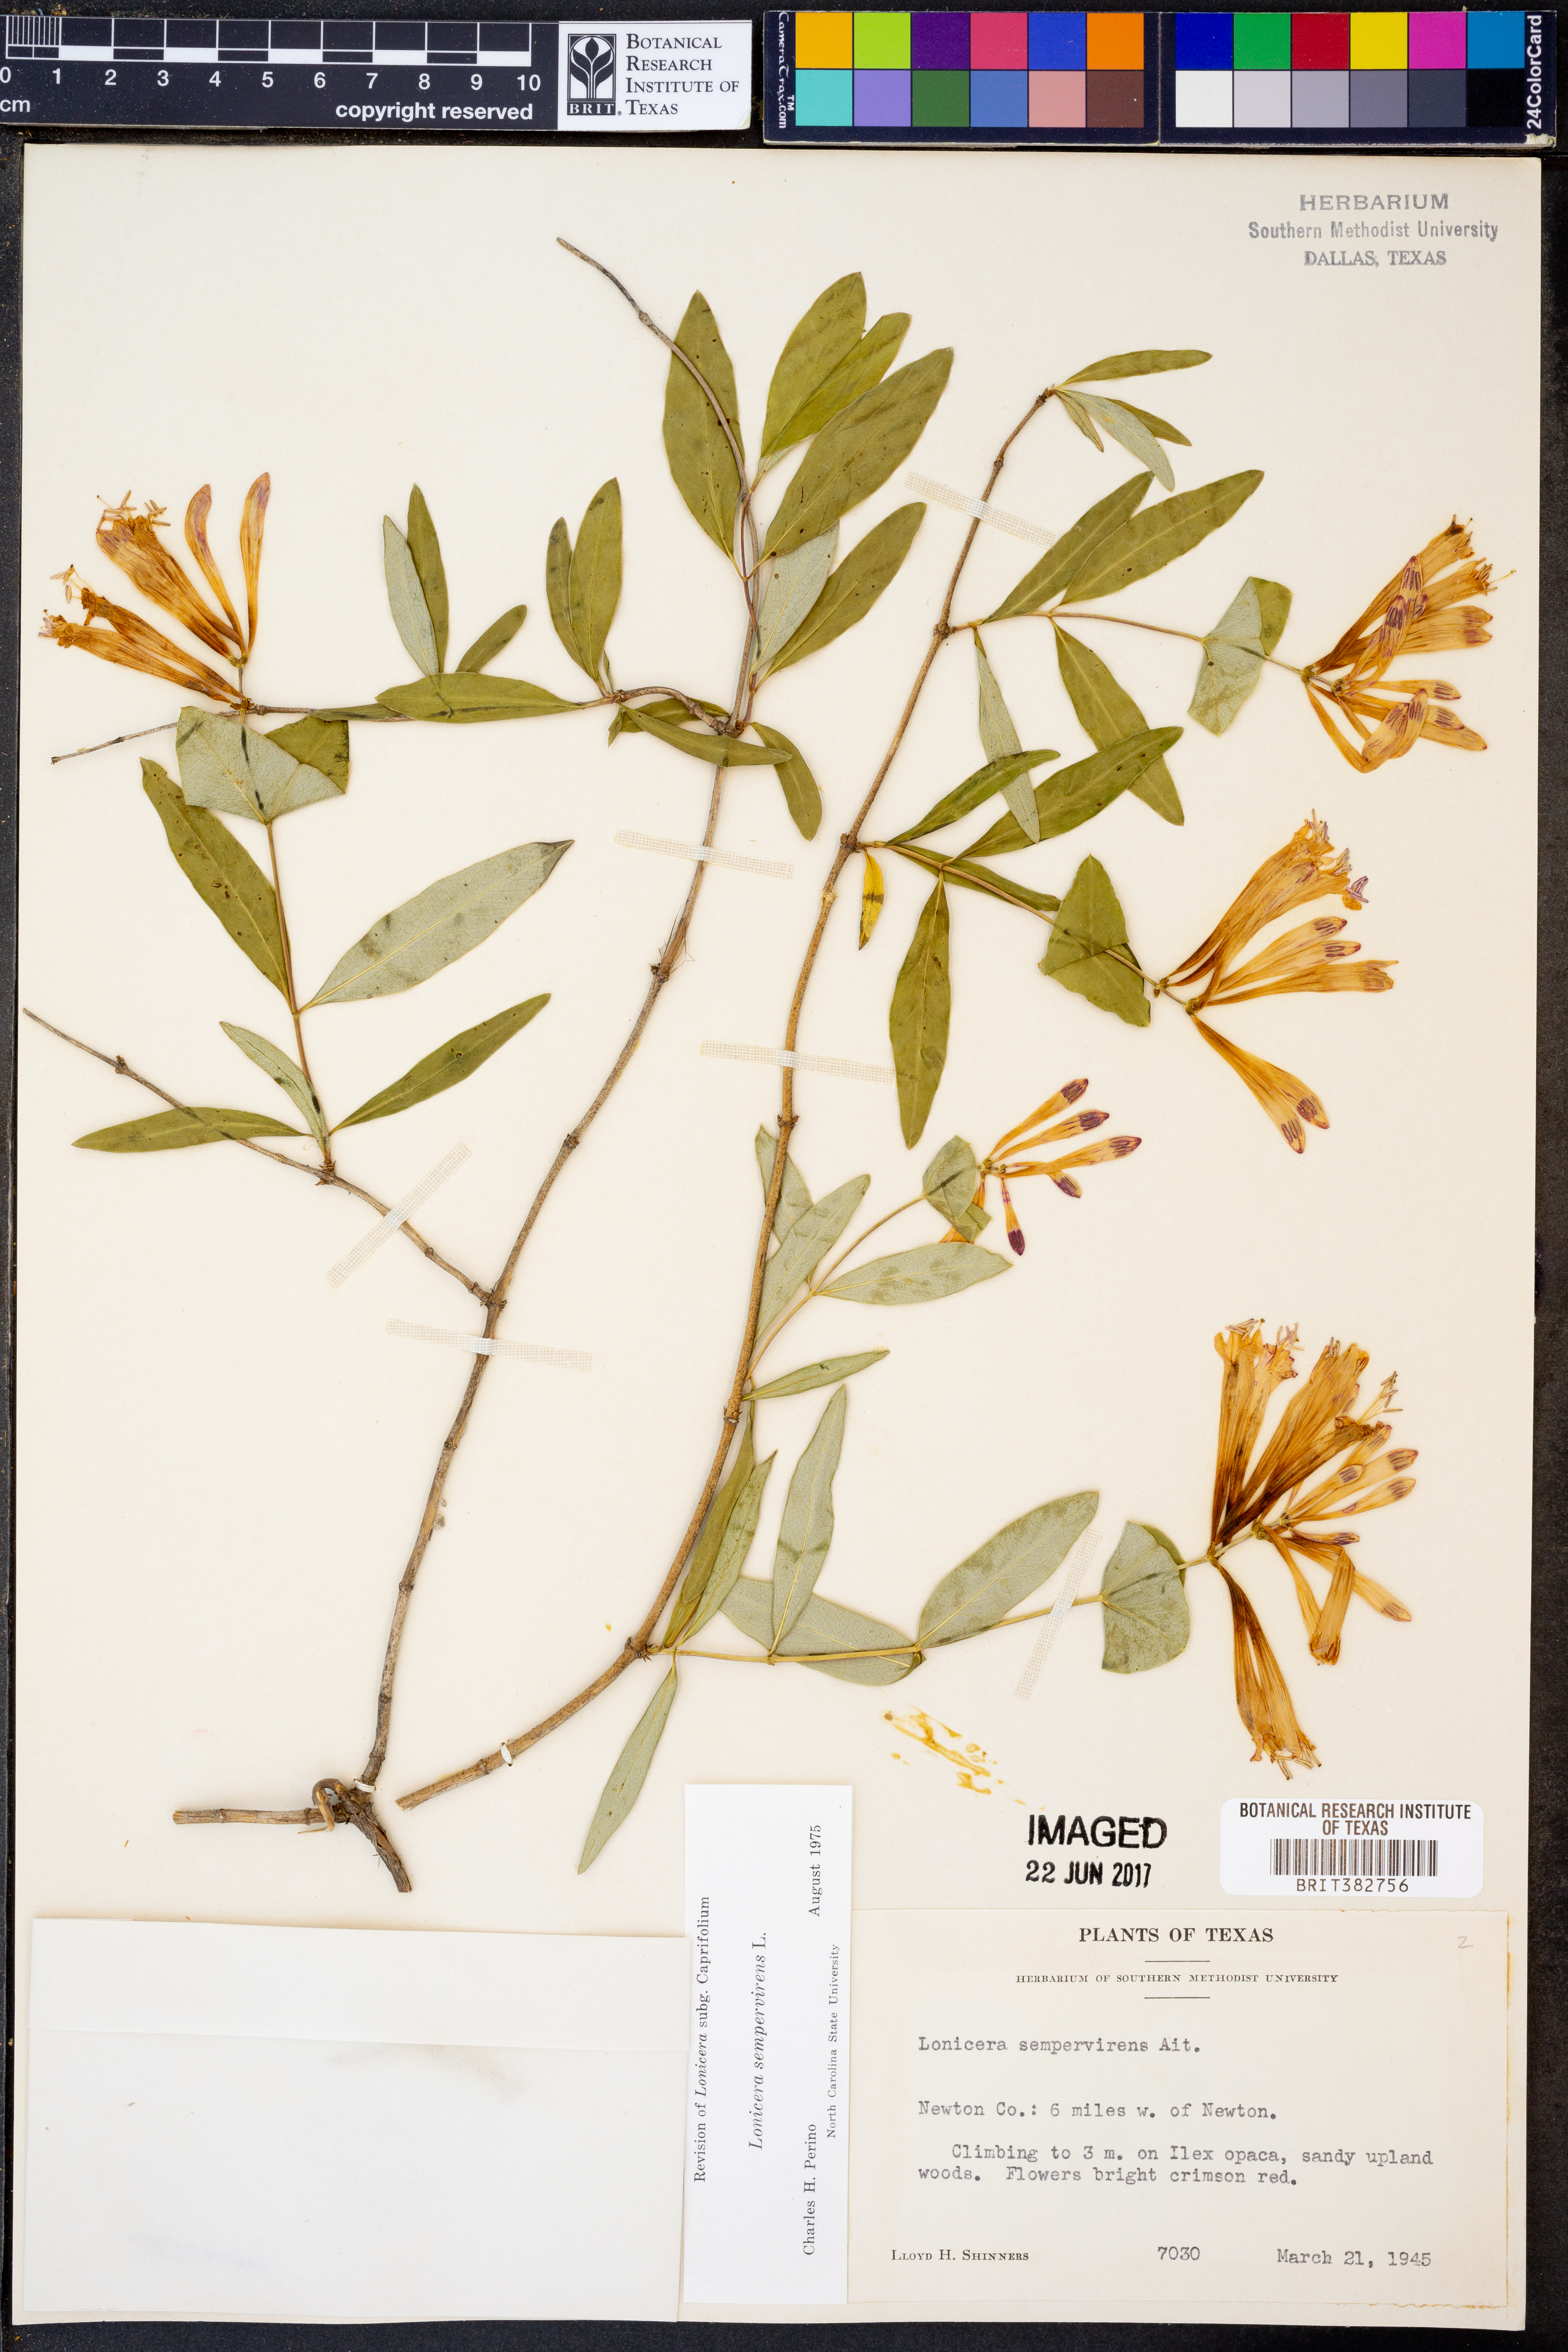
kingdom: Plantae
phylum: Tracheophyta
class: Magnoliopsida
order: Dipsacales
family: Caprifoliaceae
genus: Lonicera
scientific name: Lonicera sempervirens
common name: Coral honeysuckle
